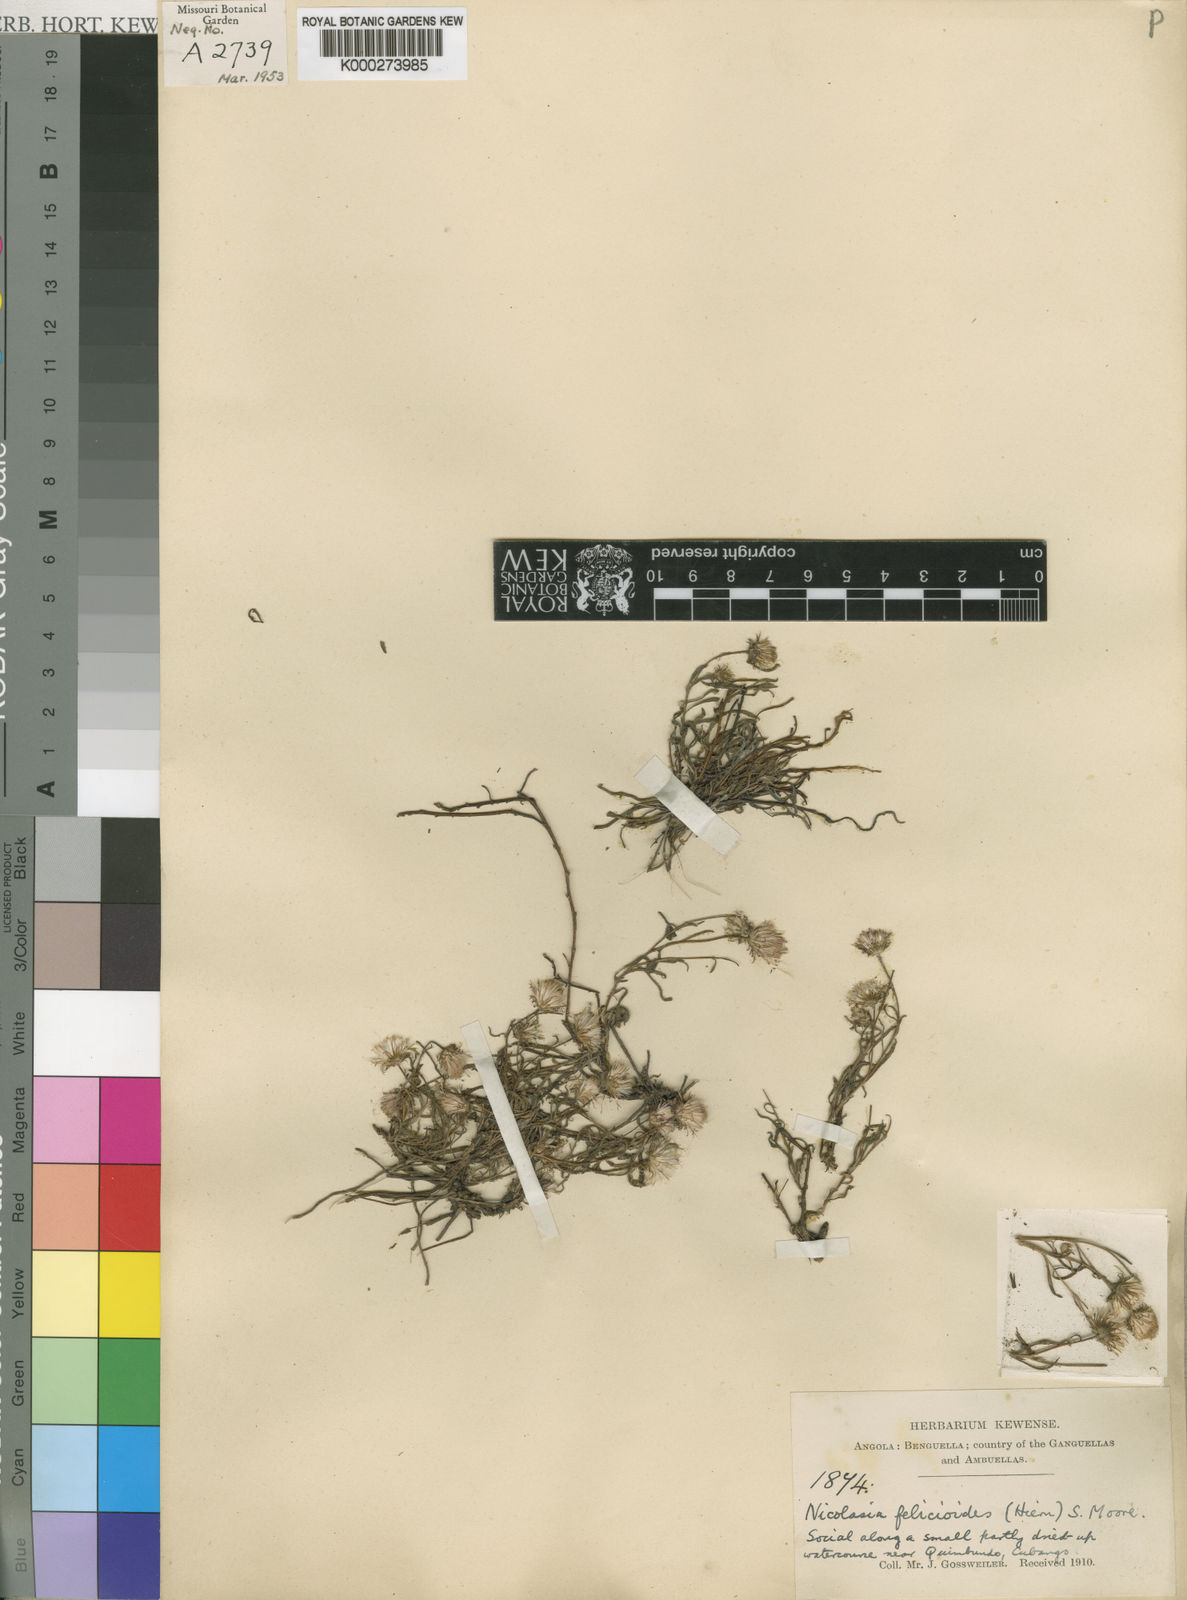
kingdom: Plantae
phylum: Tracheophyta
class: Magnoliopsida
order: Asterales
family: Asteraceae
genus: Nicolasia
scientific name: Nicolasia felicioides
